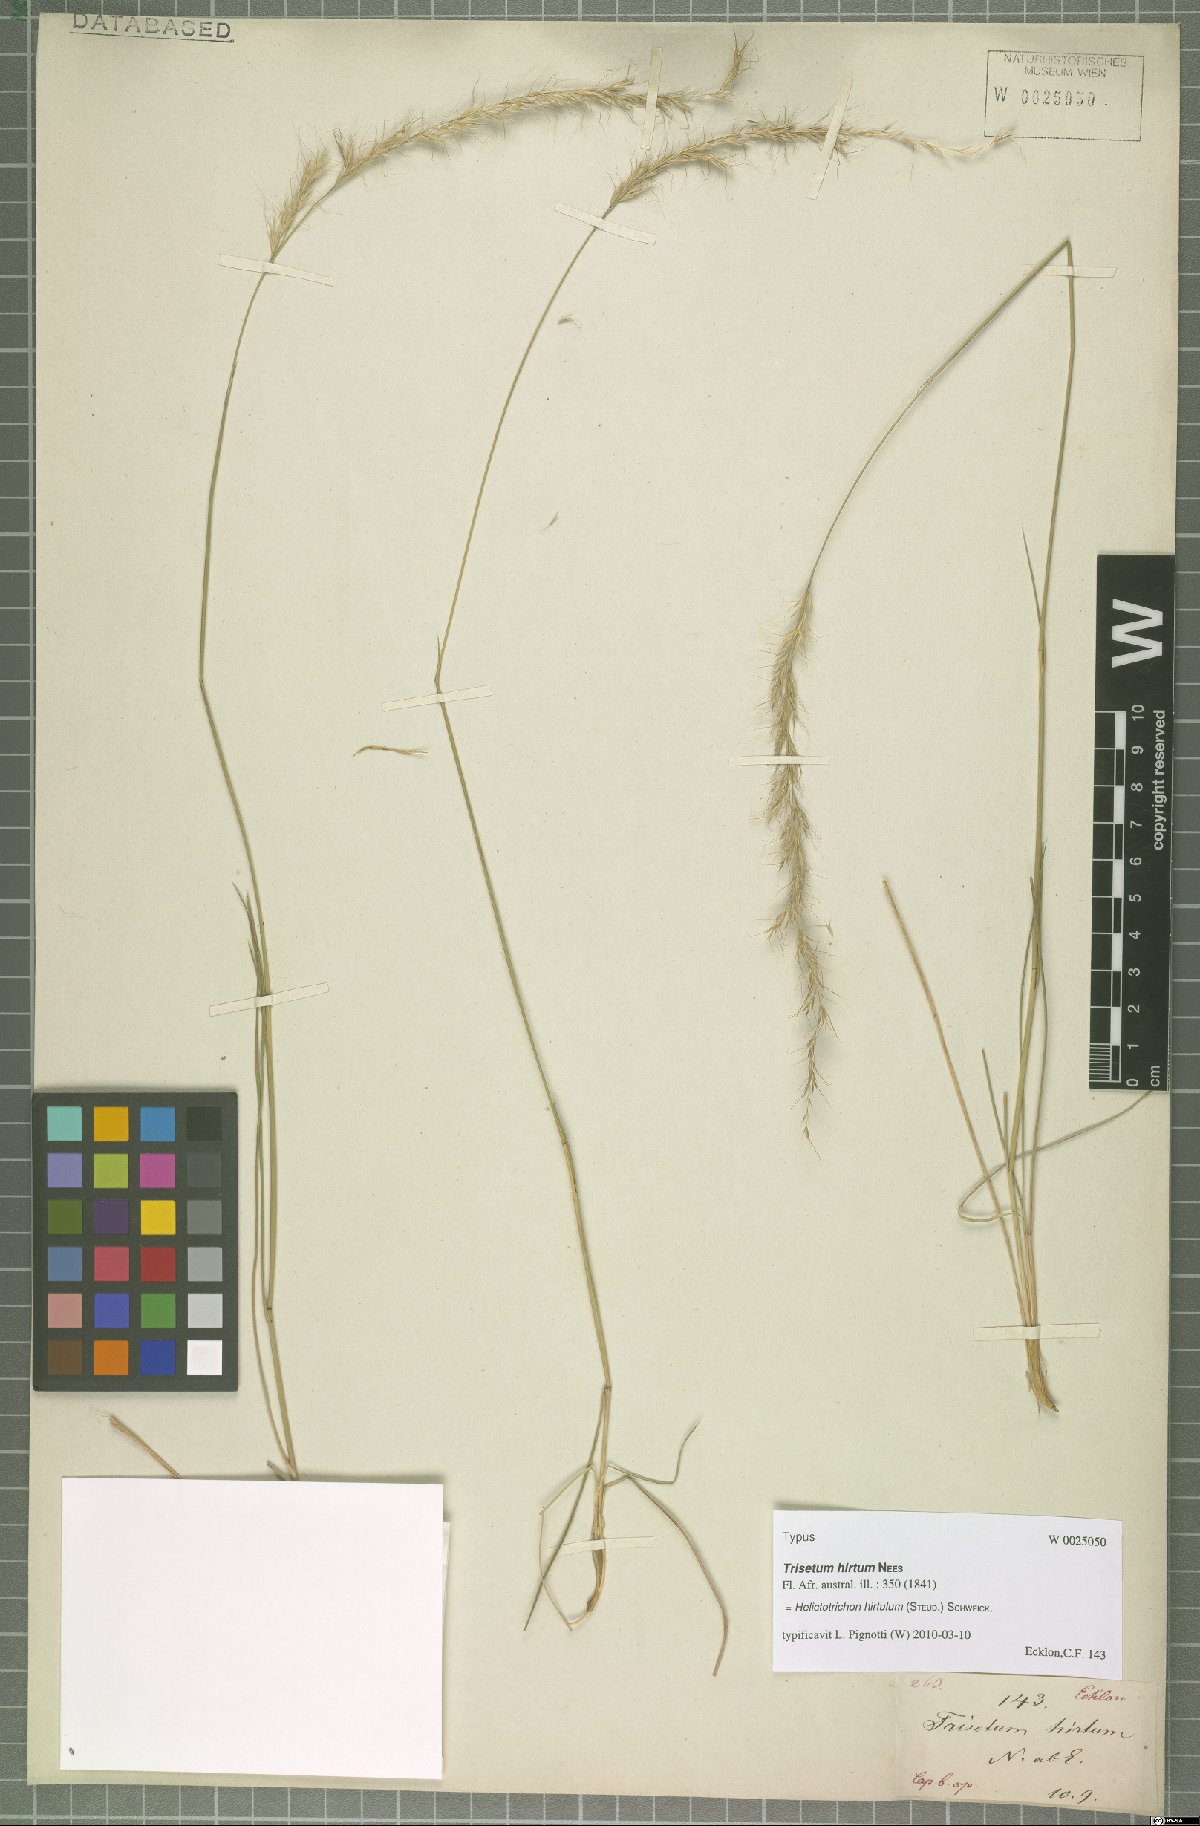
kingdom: Plantae
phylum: Tracheophyta
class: Liliopsida
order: Poales
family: Poaceae
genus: Trisetopsis
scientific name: Trisetopsis hirtula
